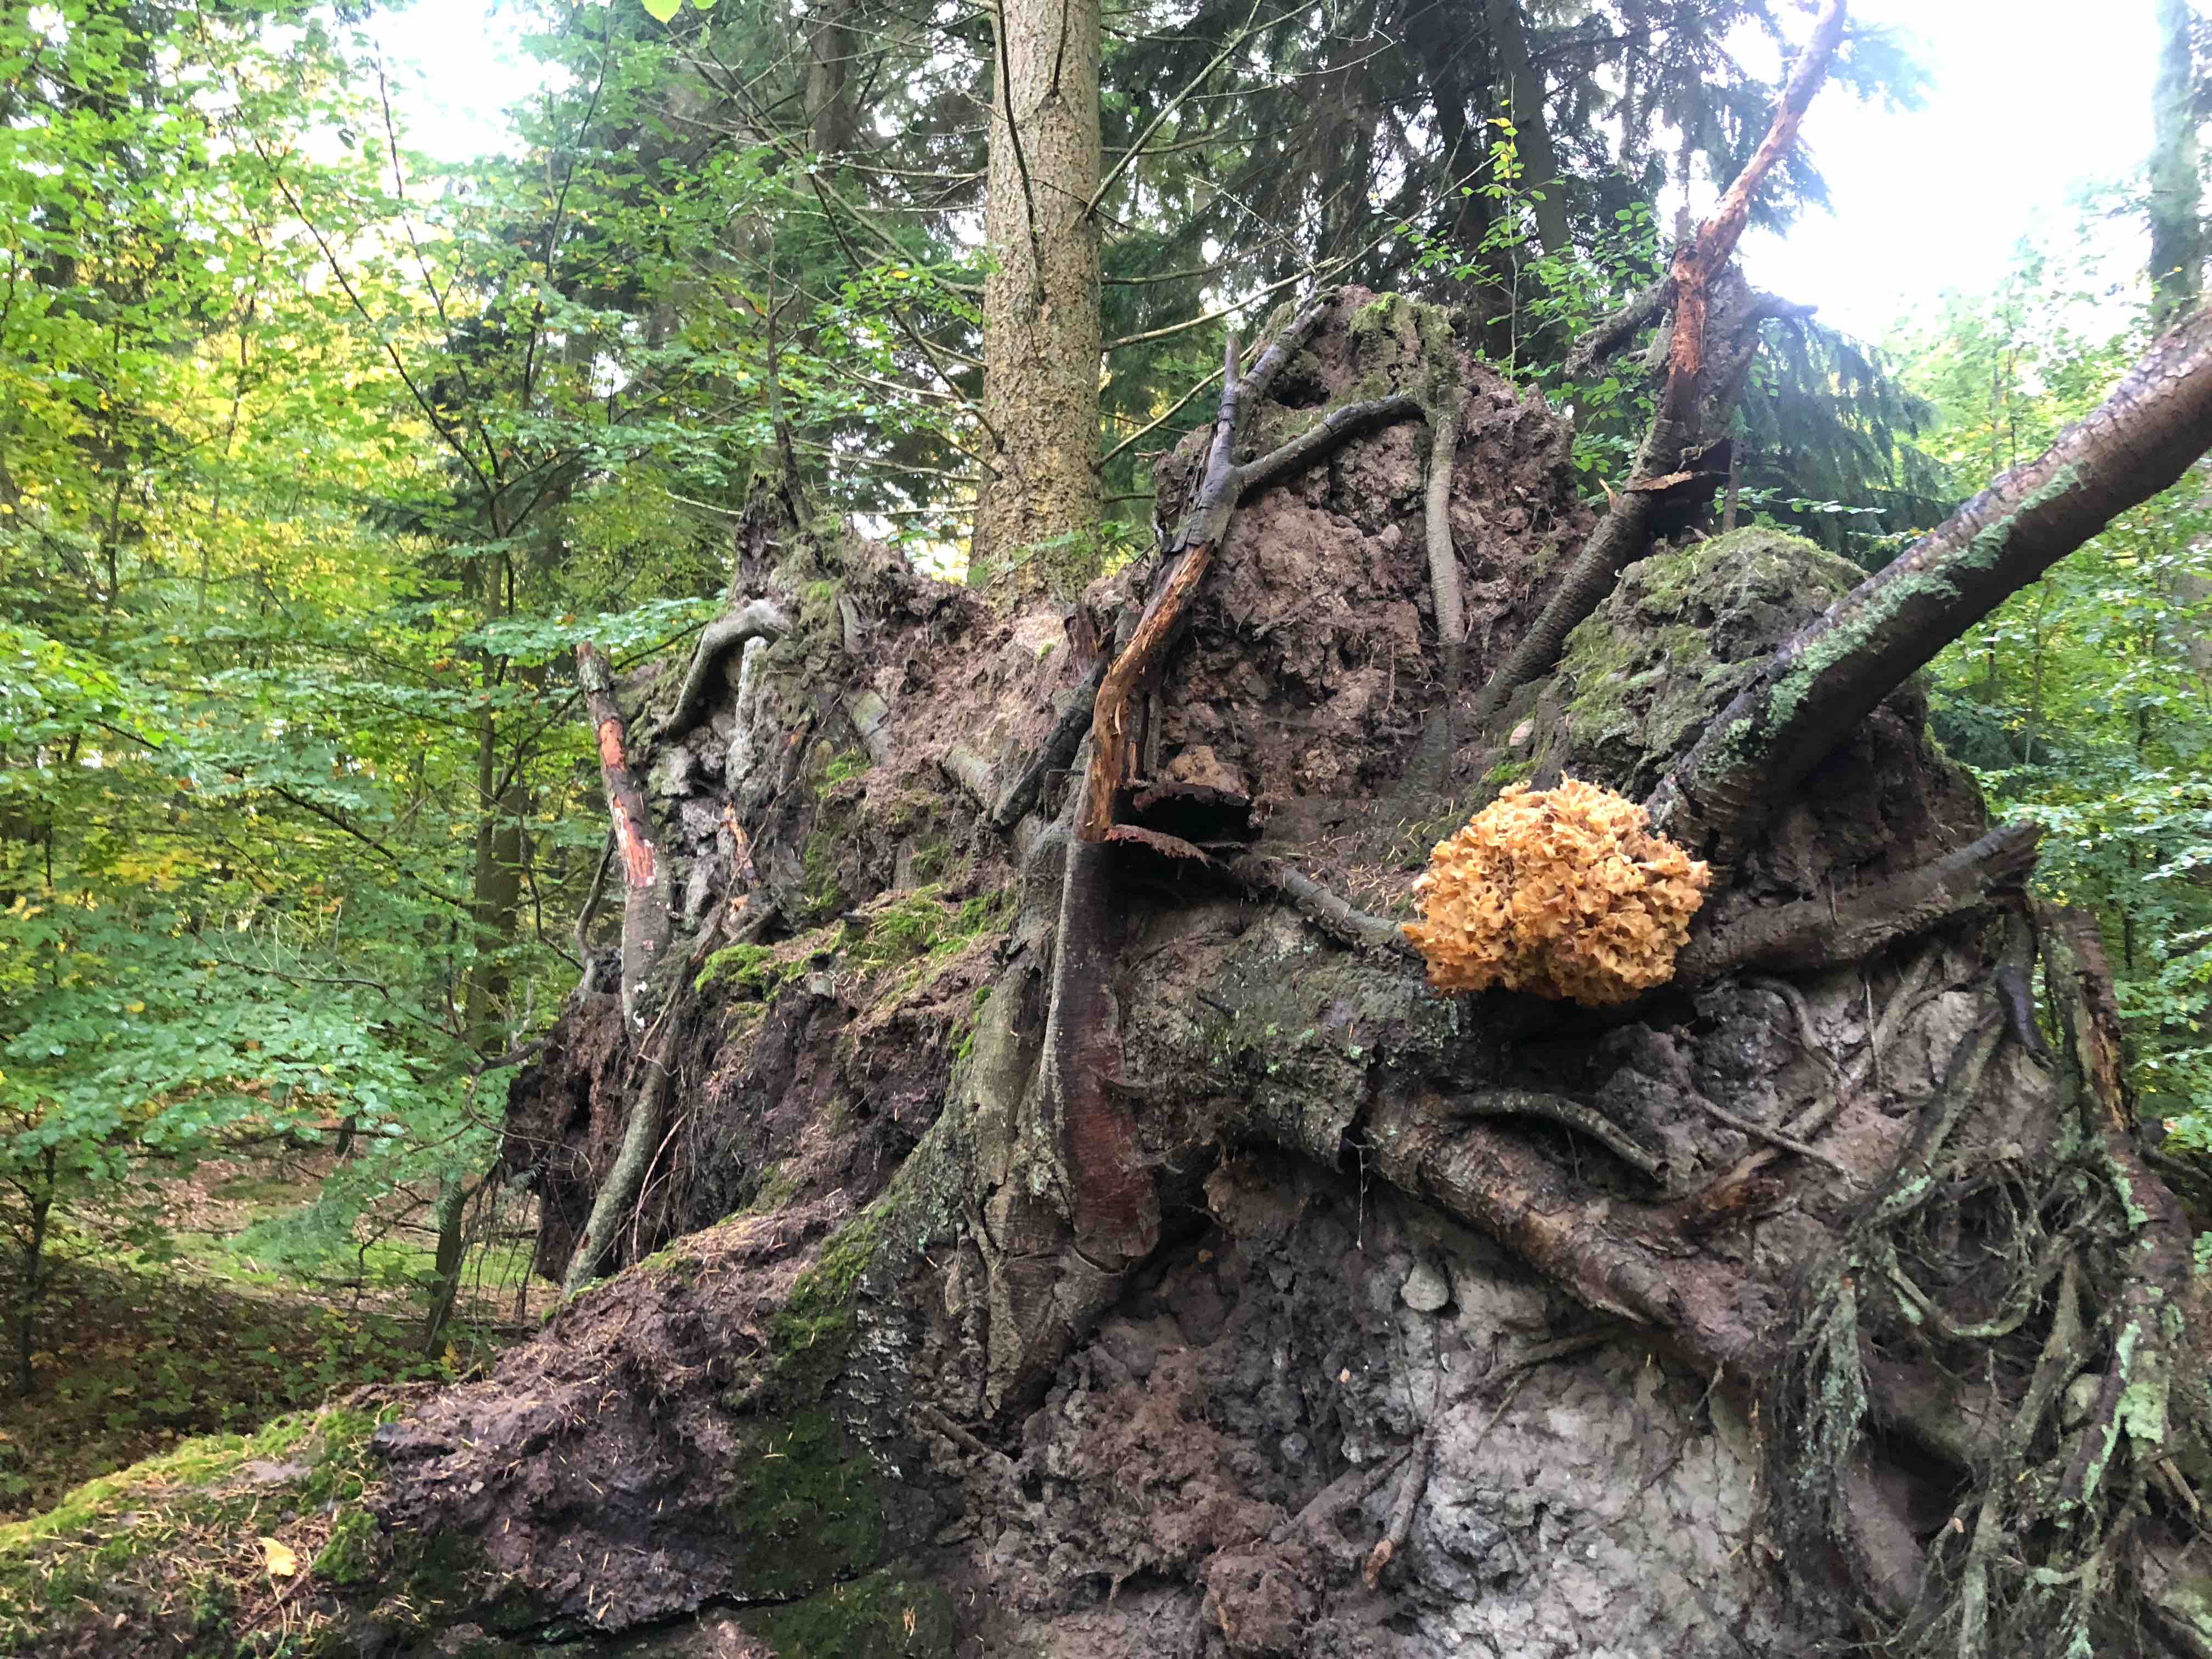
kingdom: Fungi
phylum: Basidiomycota
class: Agaricomycetes
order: Polyporales
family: Sparassidaceae
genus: Sparassis
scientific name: Sparassis crispa
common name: kruset blomkålssvamp
